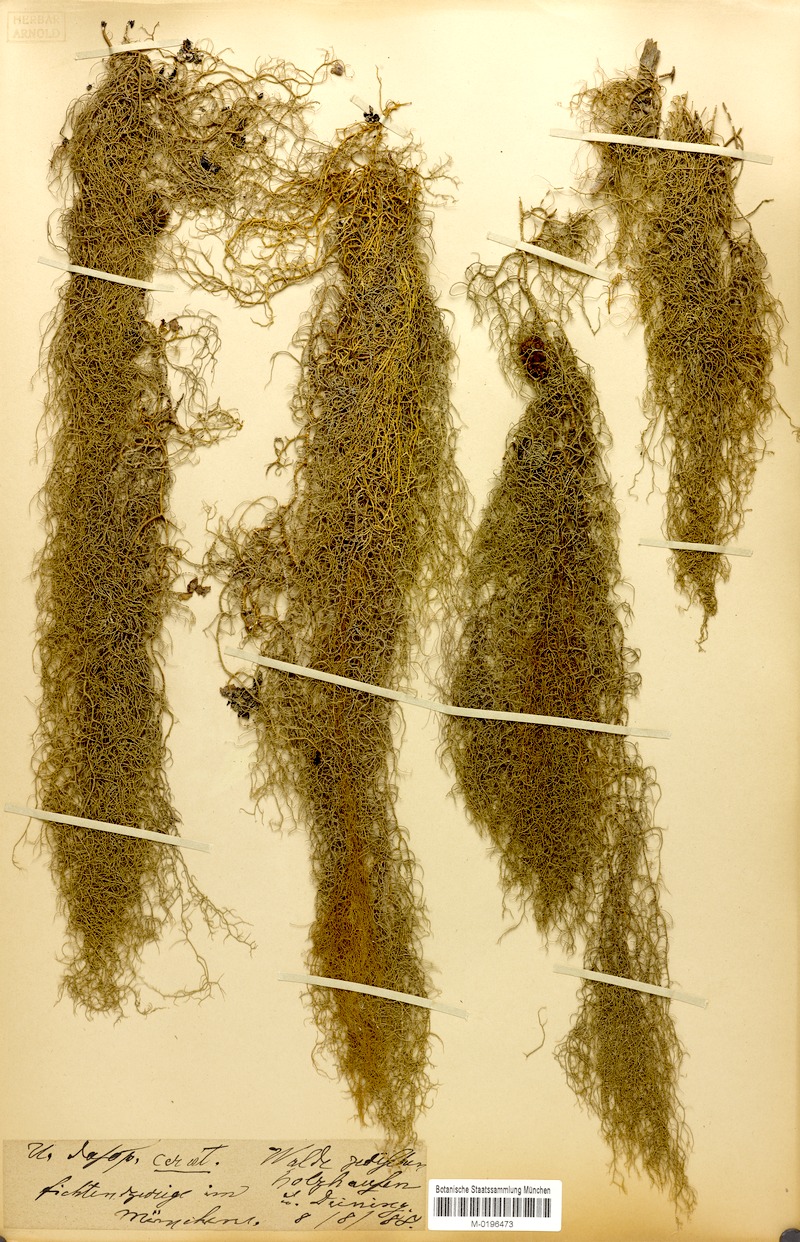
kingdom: Fungi
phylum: Ascomycota
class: Lecanoromycetes
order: Lecanorales
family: Parmeliaceae
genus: Usnea
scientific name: Usnea ceratina
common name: Warty beard lichen
